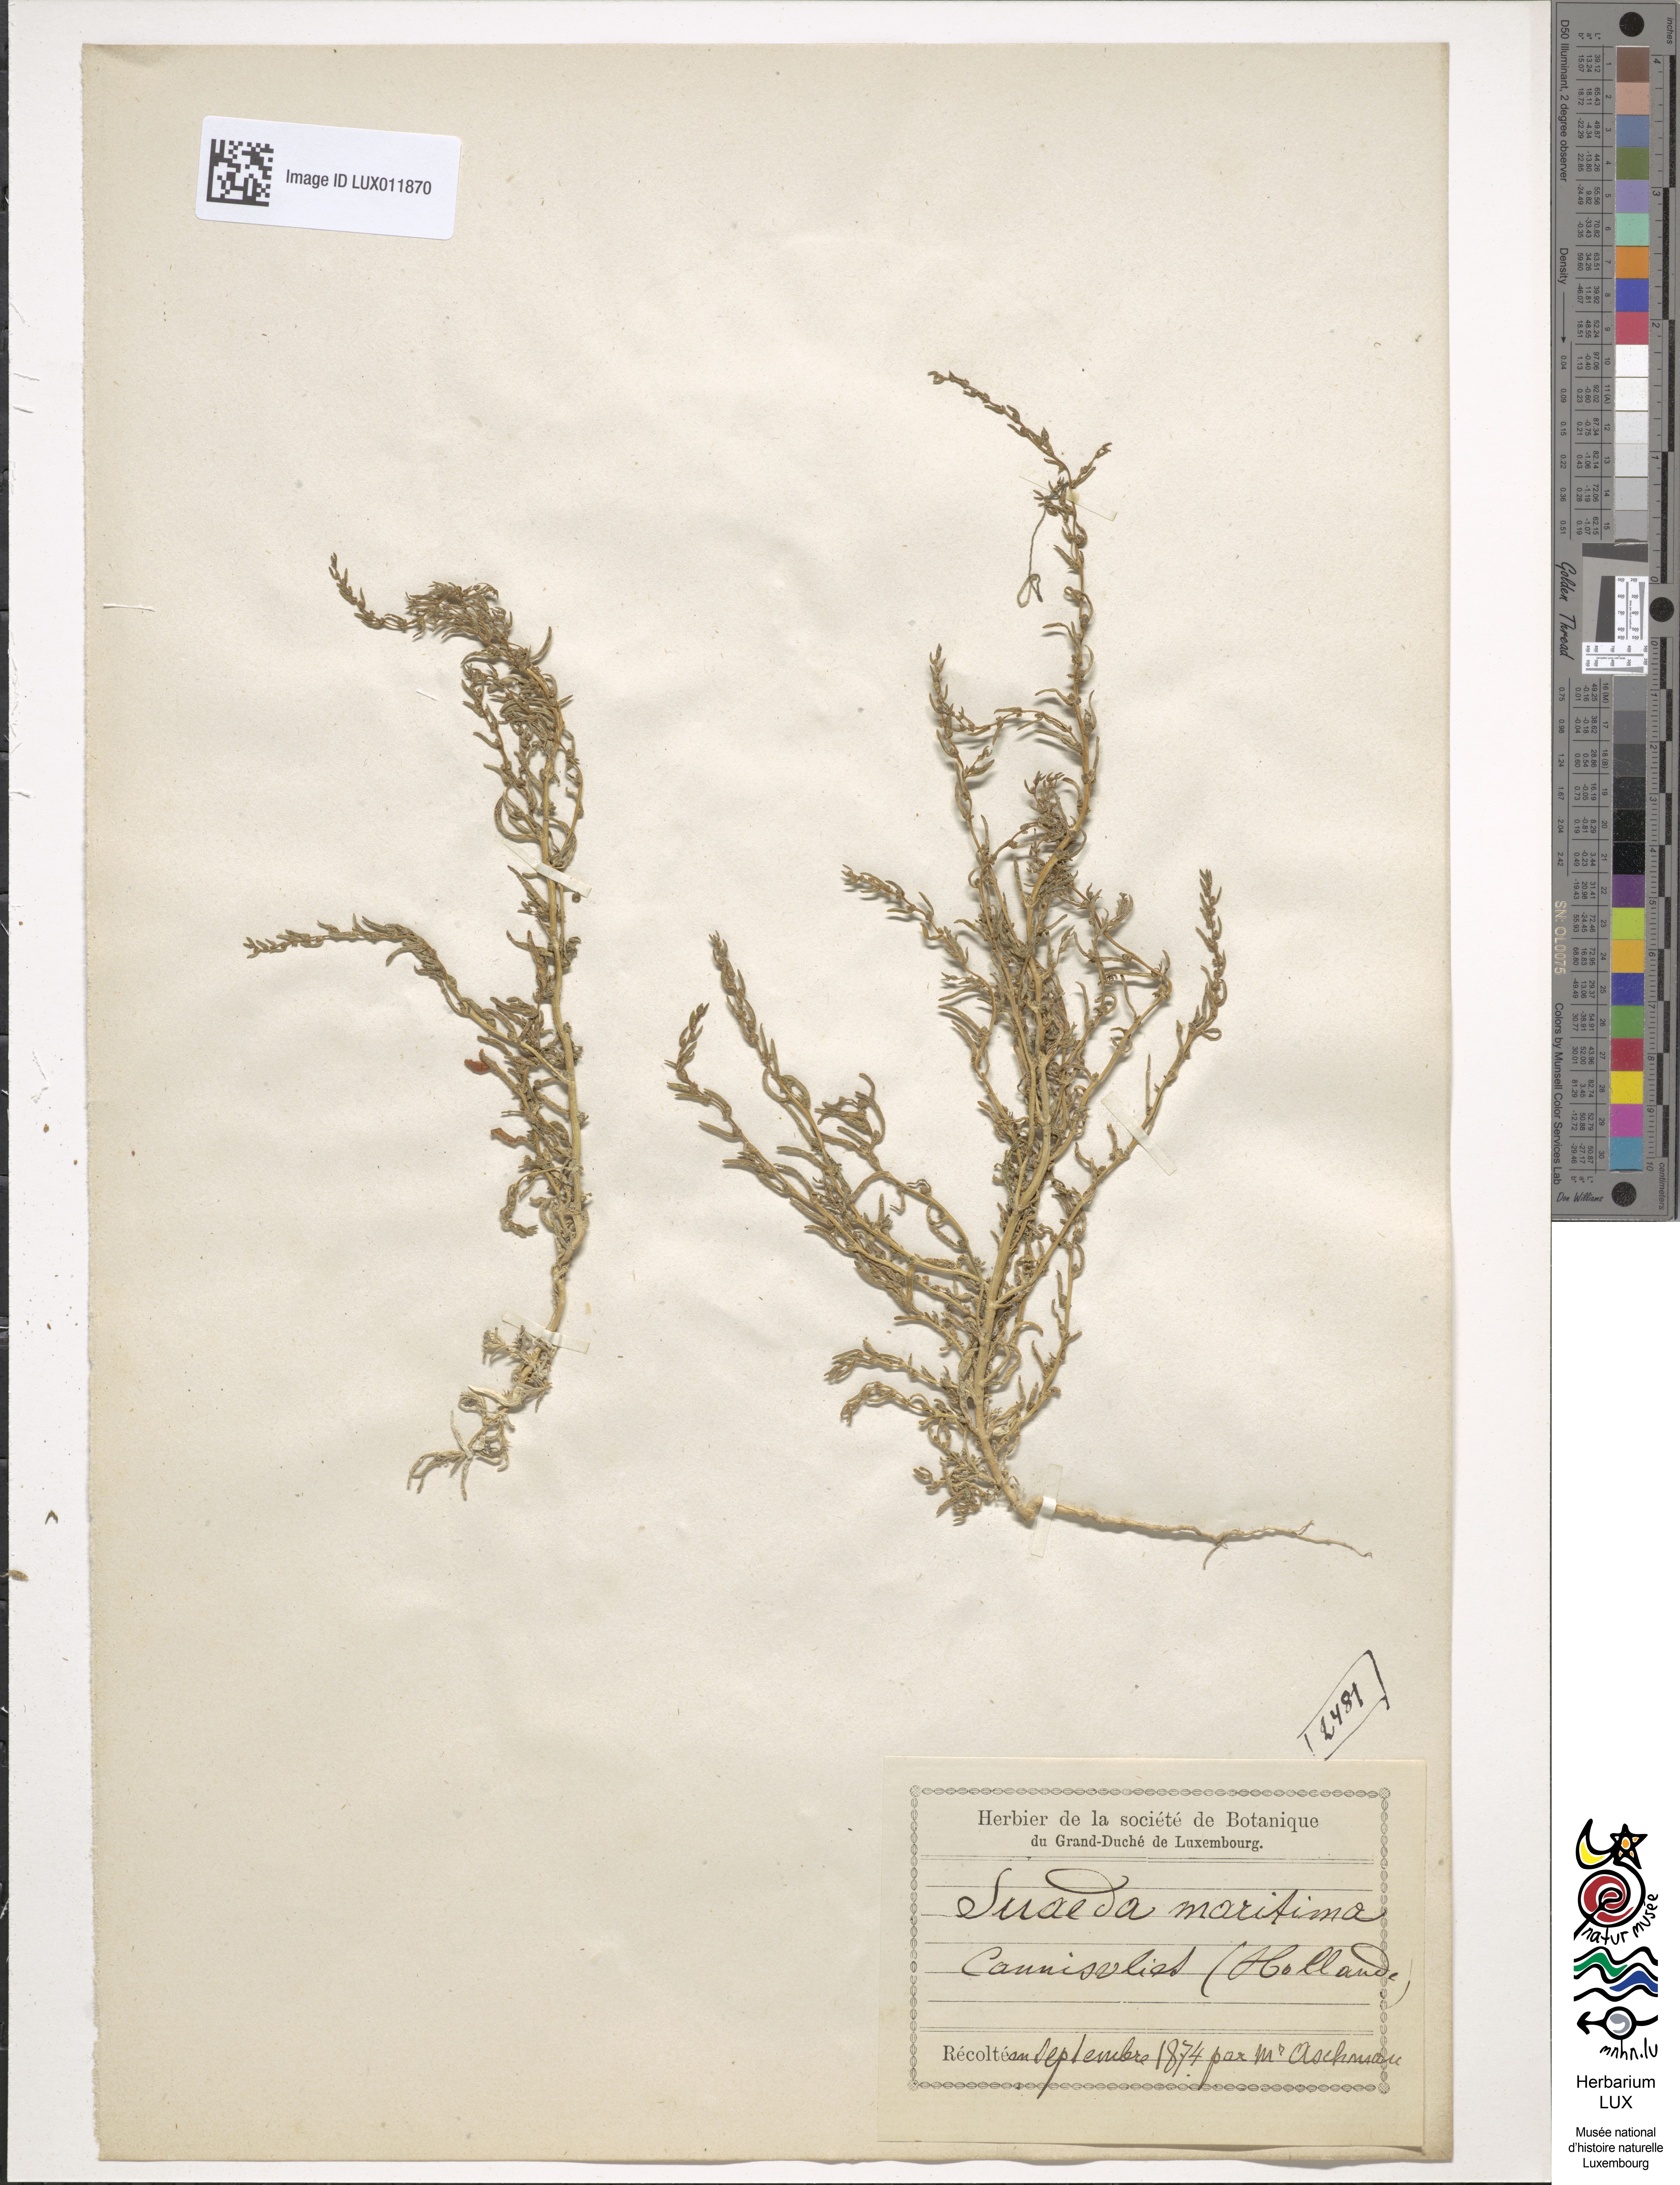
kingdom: Plantae
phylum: Tracheophyta
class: Magnoliopsida
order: Caryophyllales
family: Amaranthaceae
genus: Suaeda
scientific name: Suaeda maritima
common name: Annual sea-blite
